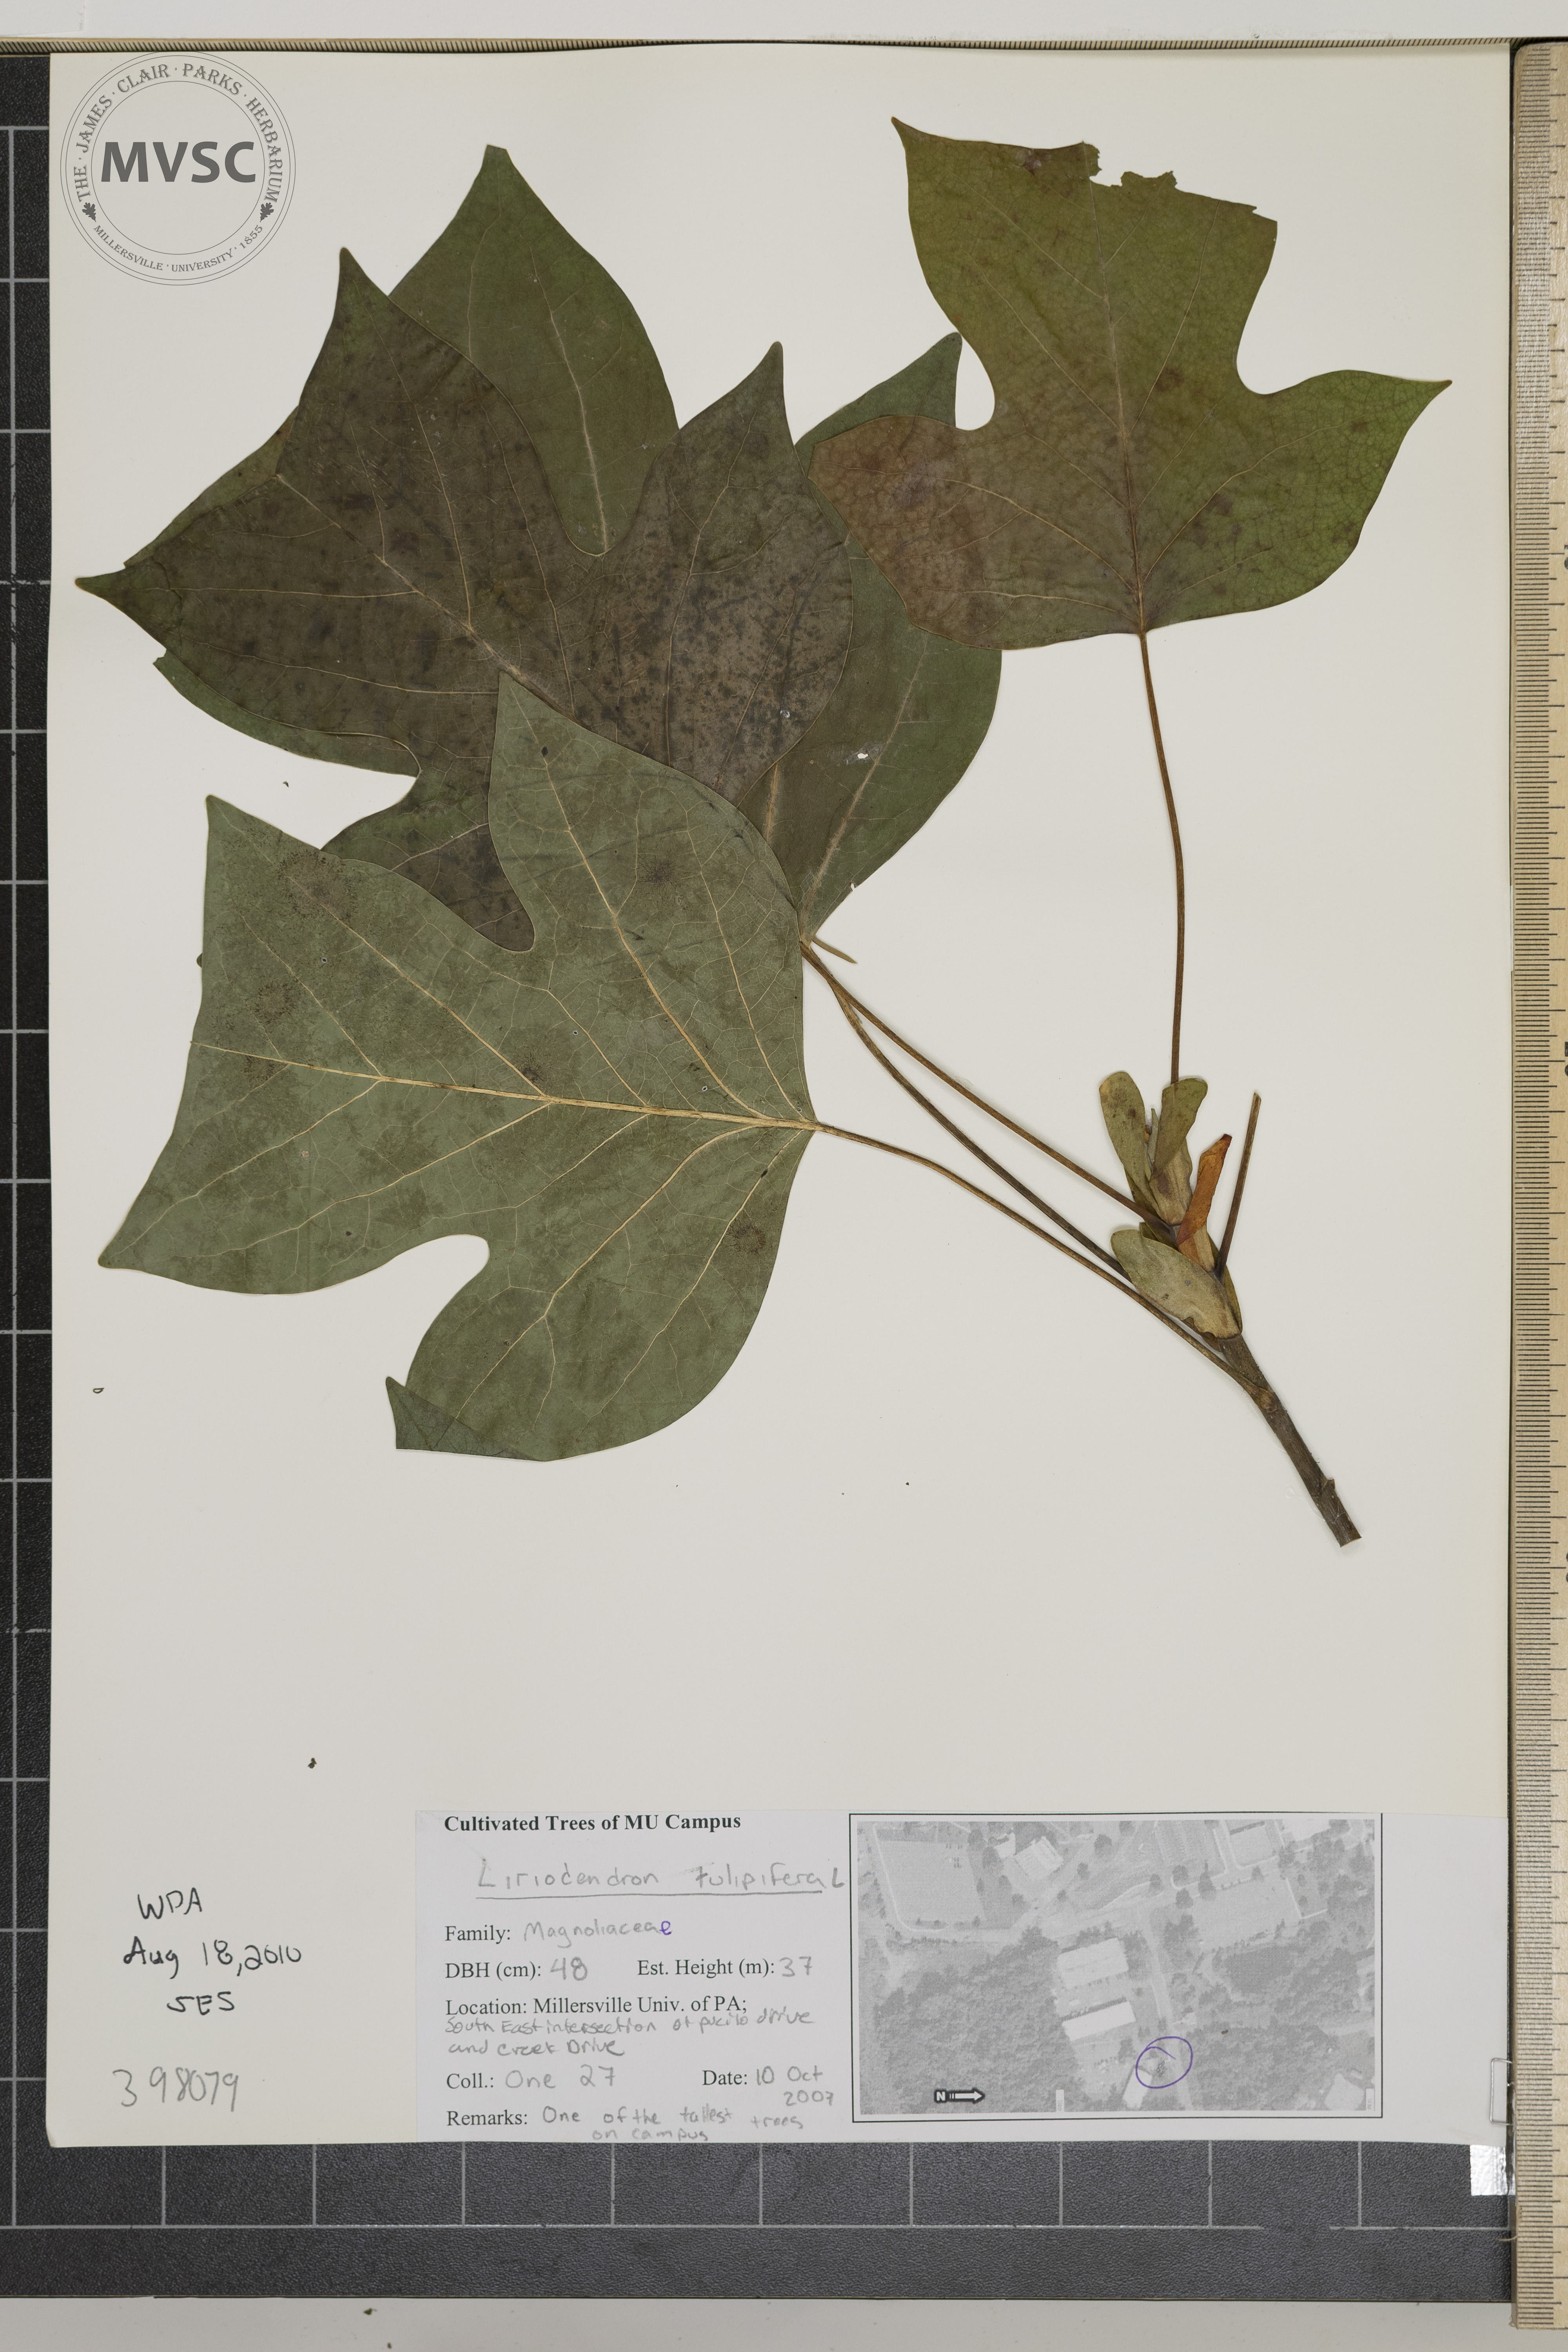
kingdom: Plantae
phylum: Tracheophyta
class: Magnoliopsida
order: Magnoliales
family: Magnoliaceae
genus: Liriodendron
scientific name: Liriodendron tulipifera
